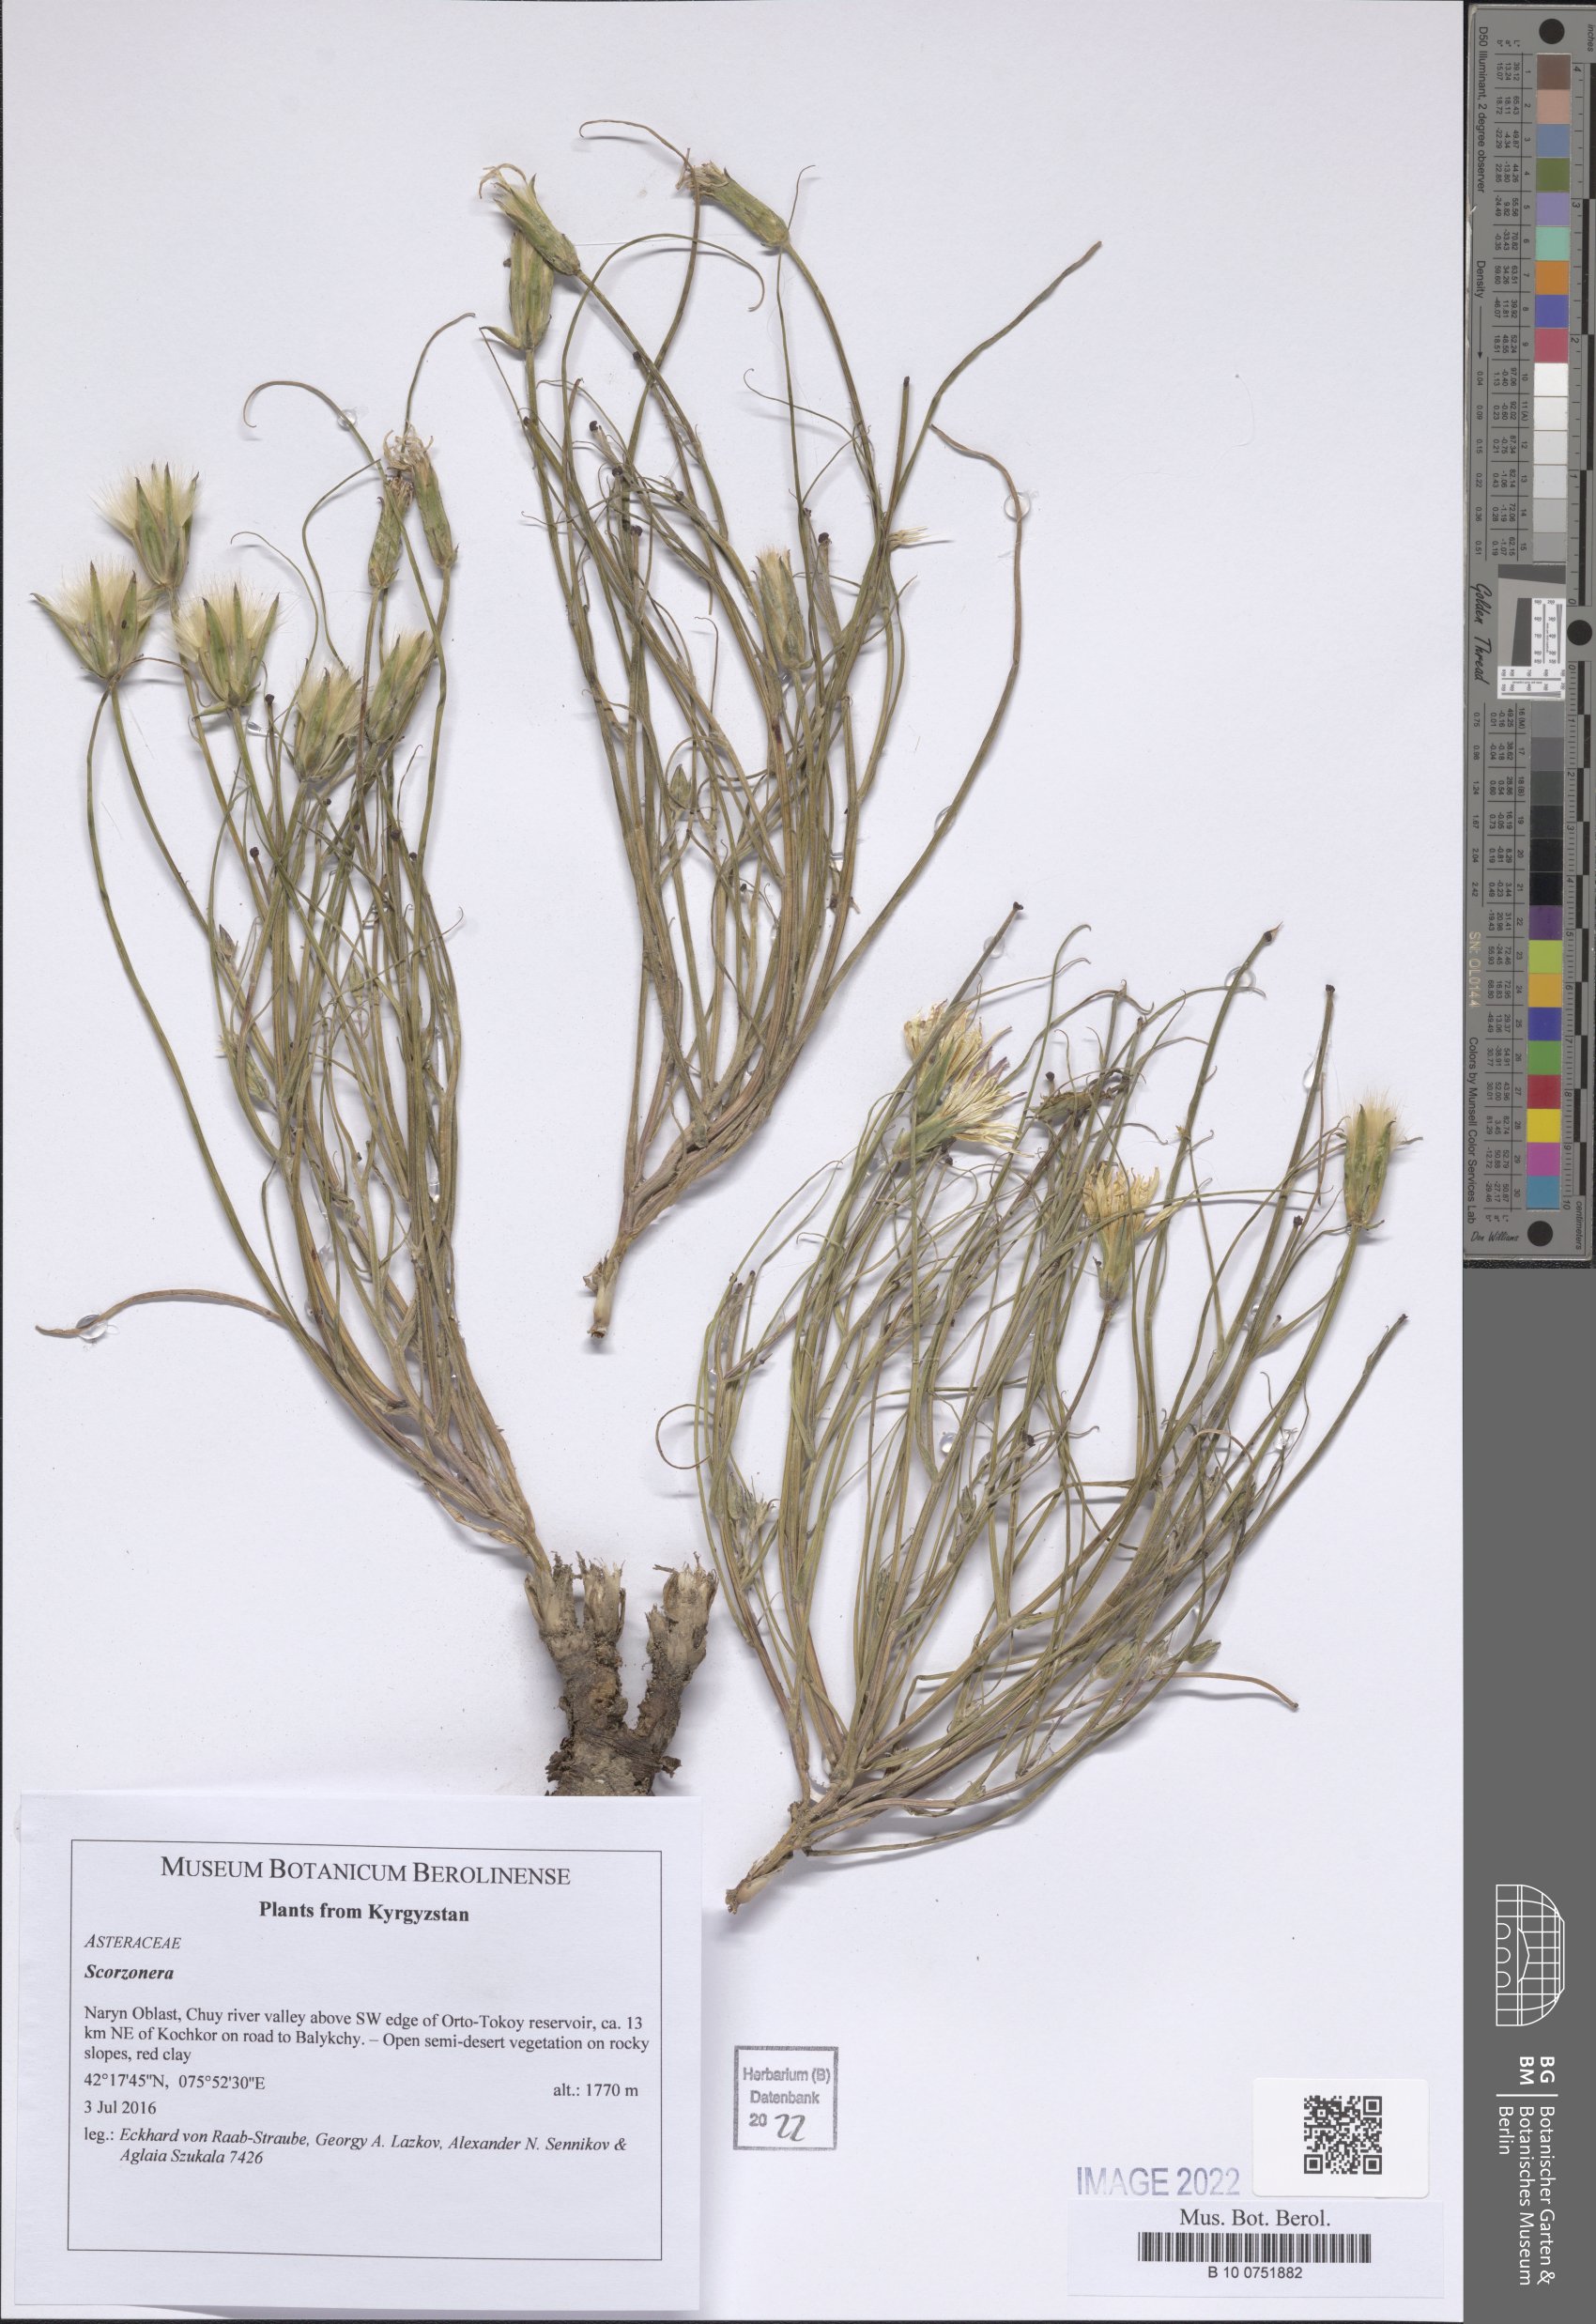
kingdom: Plantae
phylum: Tracheophyta
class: Magnoliopsida
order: Asterales
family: Asteraceae
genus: Scorzonera
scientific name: Scorzonera
